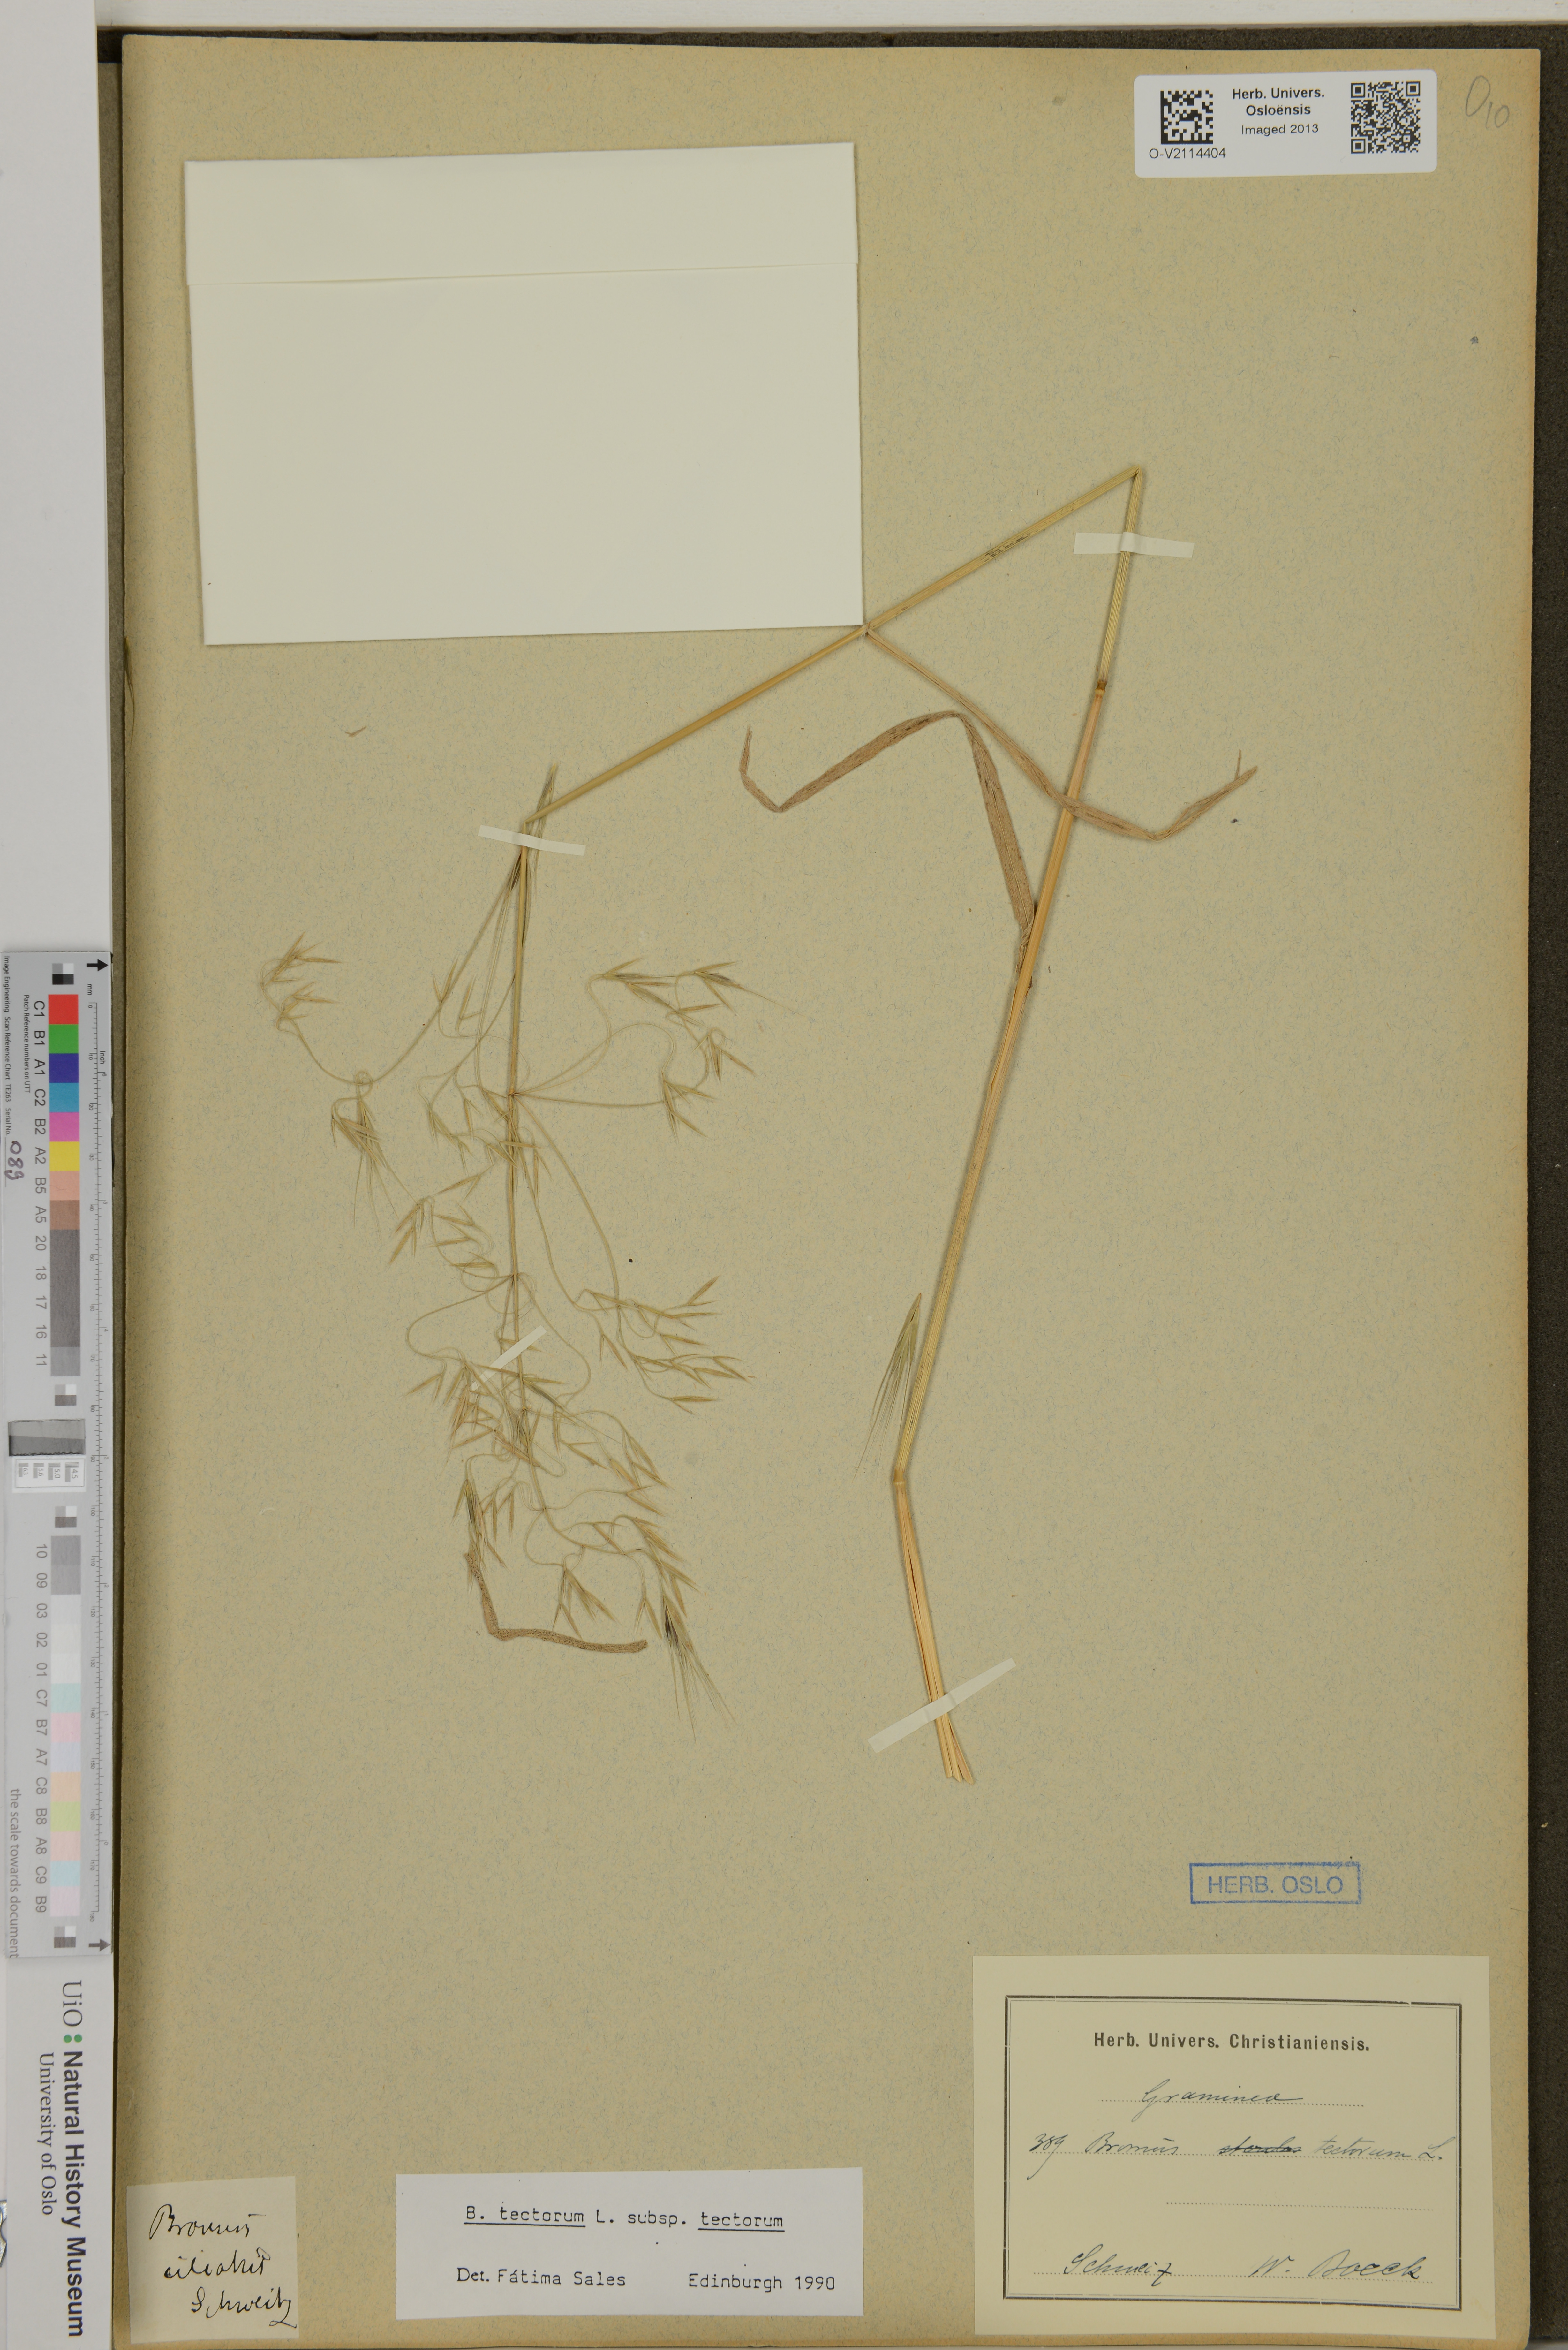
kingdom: Plantae
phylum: Tracheophyta
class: Liliopsida
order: Poales
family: Poaceae
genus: Bromus
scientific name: Bromus tectorum
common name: Cheatgrass
